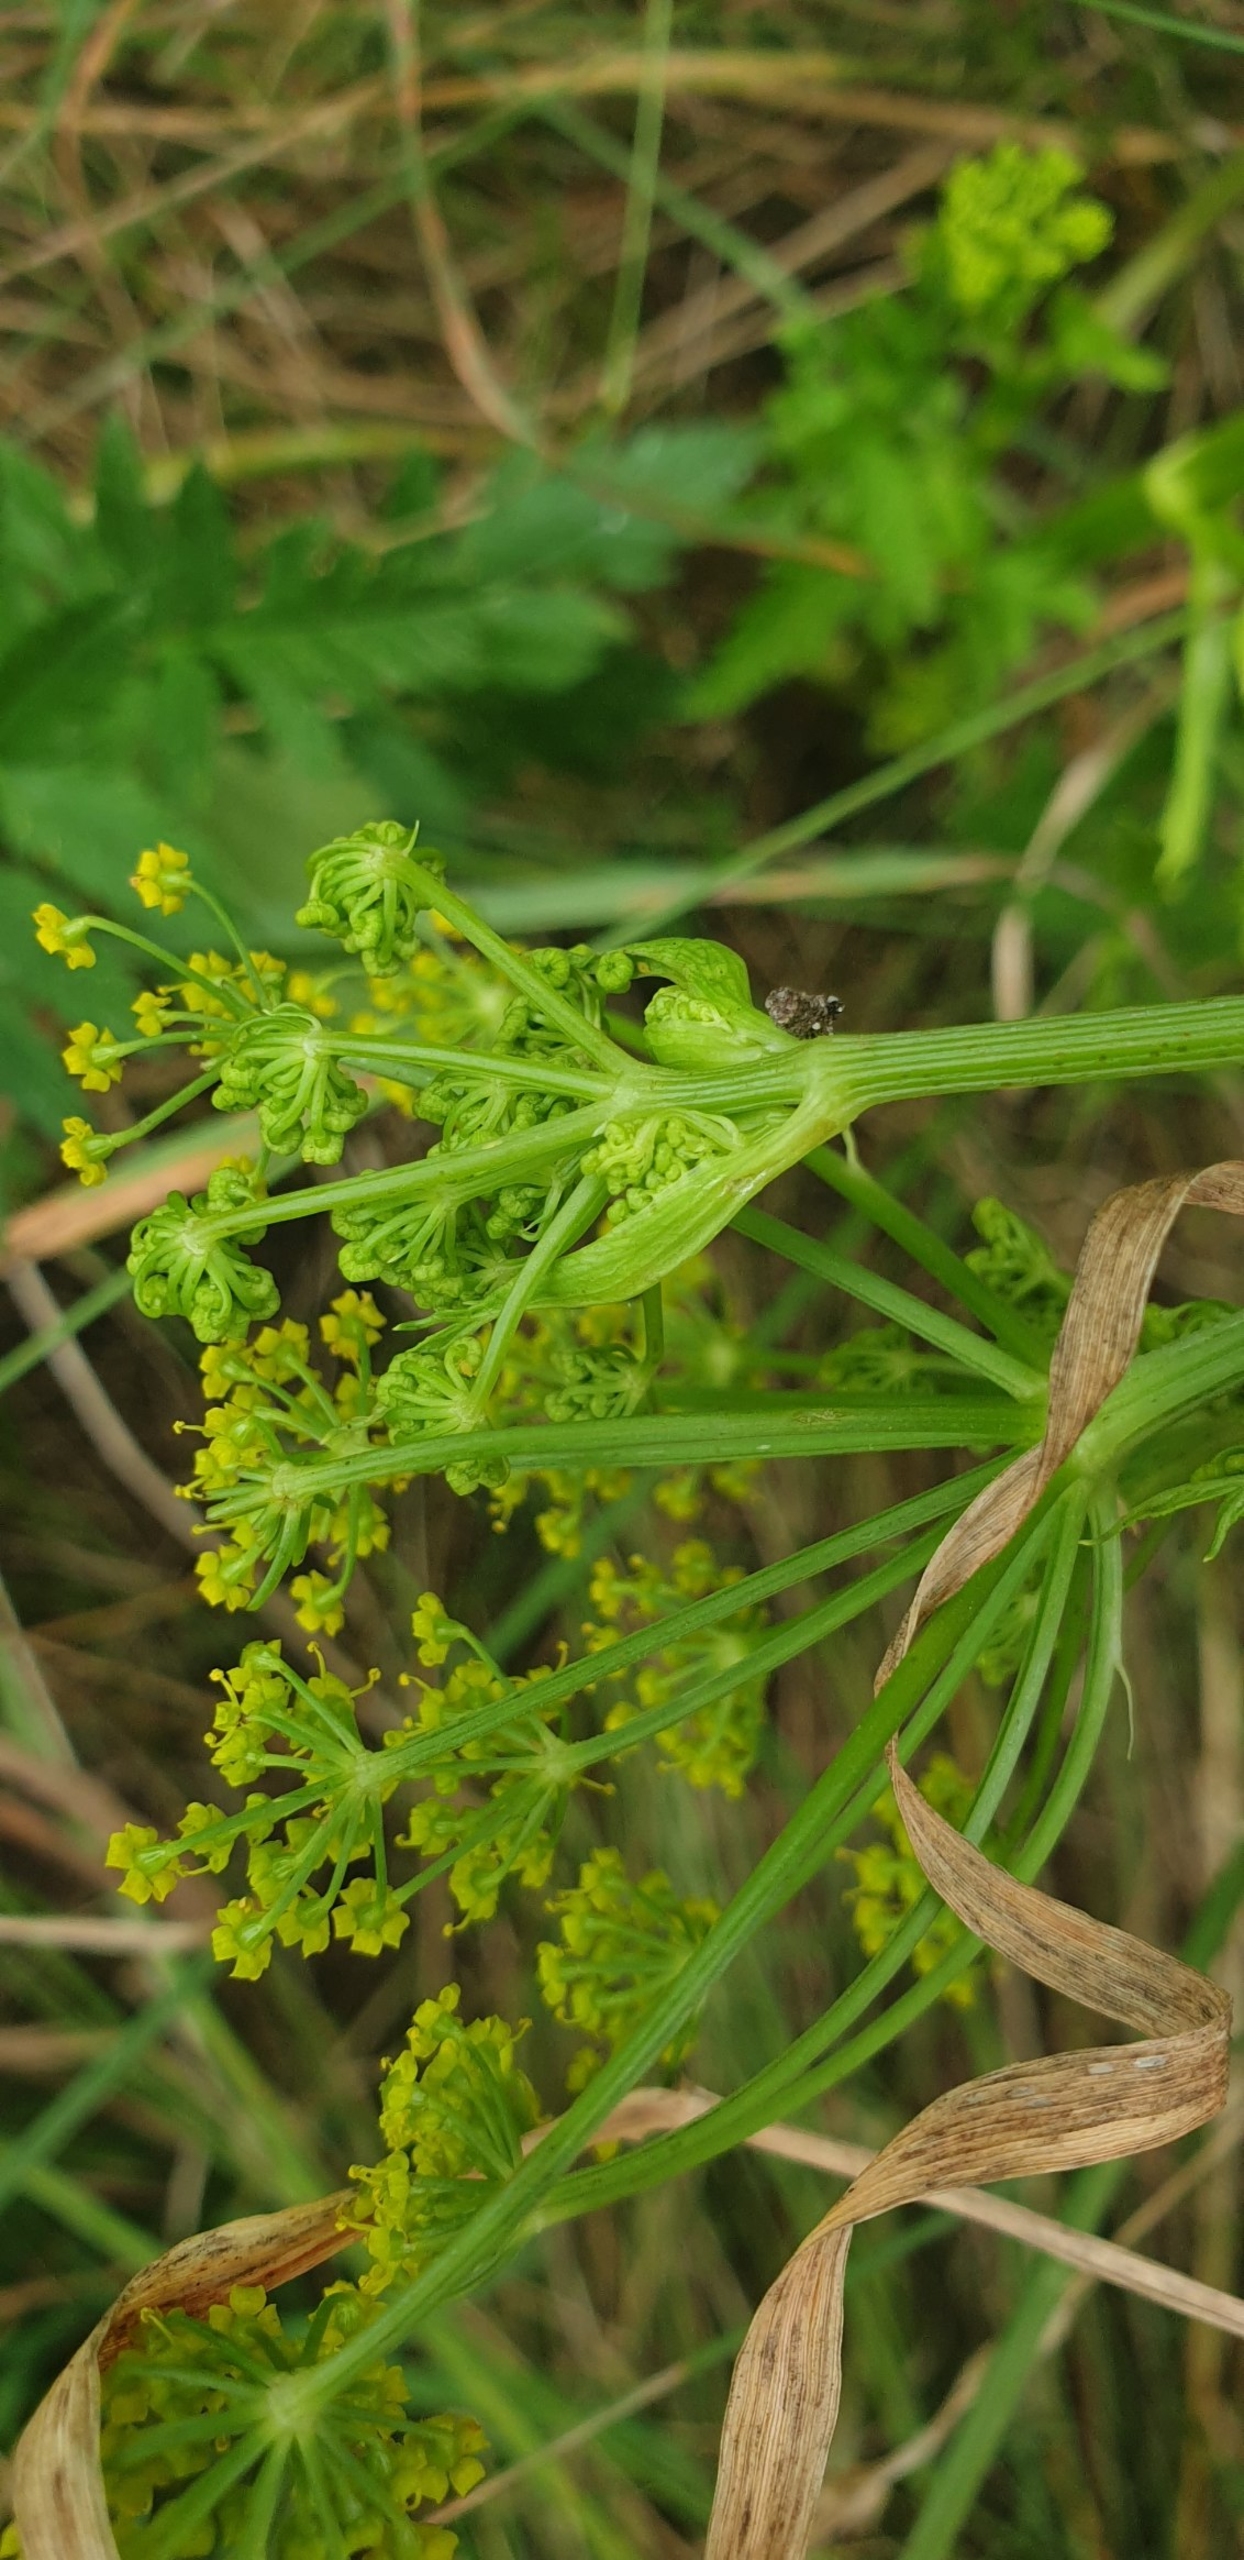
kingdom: Plantae
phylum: Tracheophyta
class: Magnoliopsida
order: Apiales
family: Apiaceae
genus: Pastinaca
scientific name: Pastinaca sativa
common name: Pastinak
